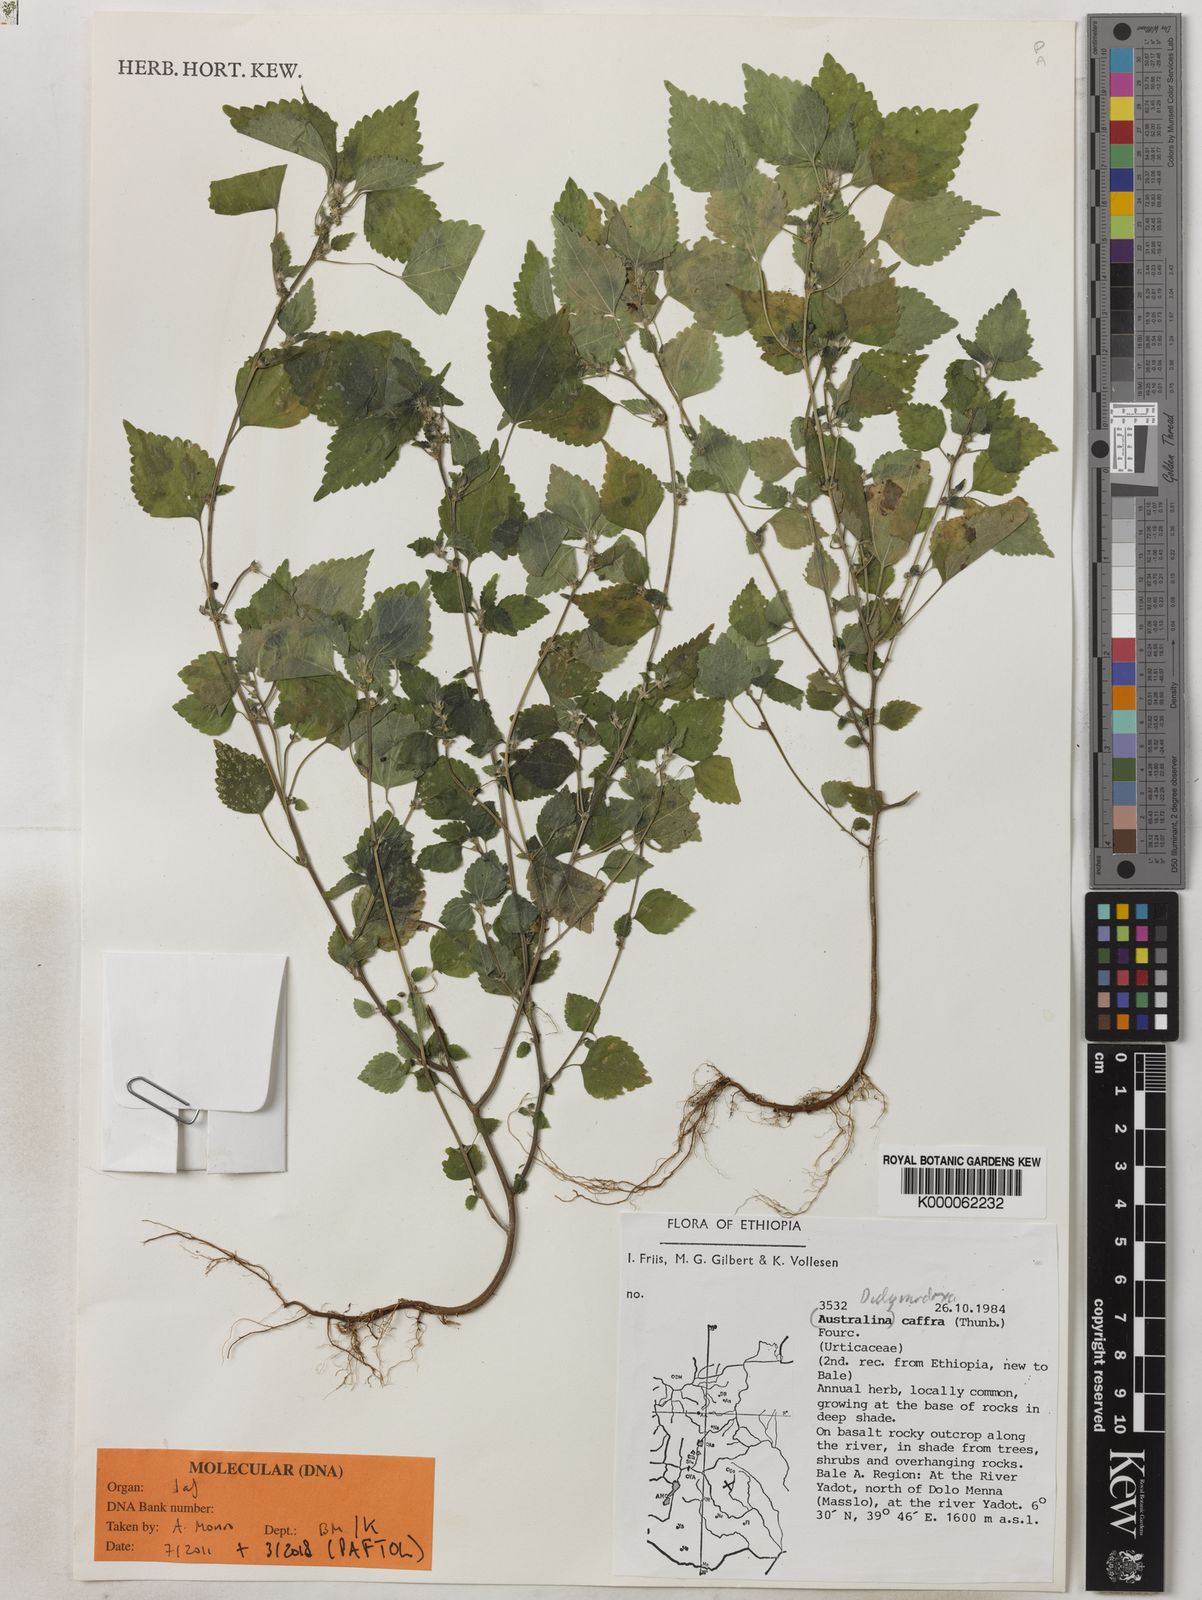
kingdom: Plantae
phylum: Tracheophyta
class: Magnoliopsida
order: Rosales
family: Urticaceae
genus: Didymodoxa
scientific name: Didymodoxa caffra
